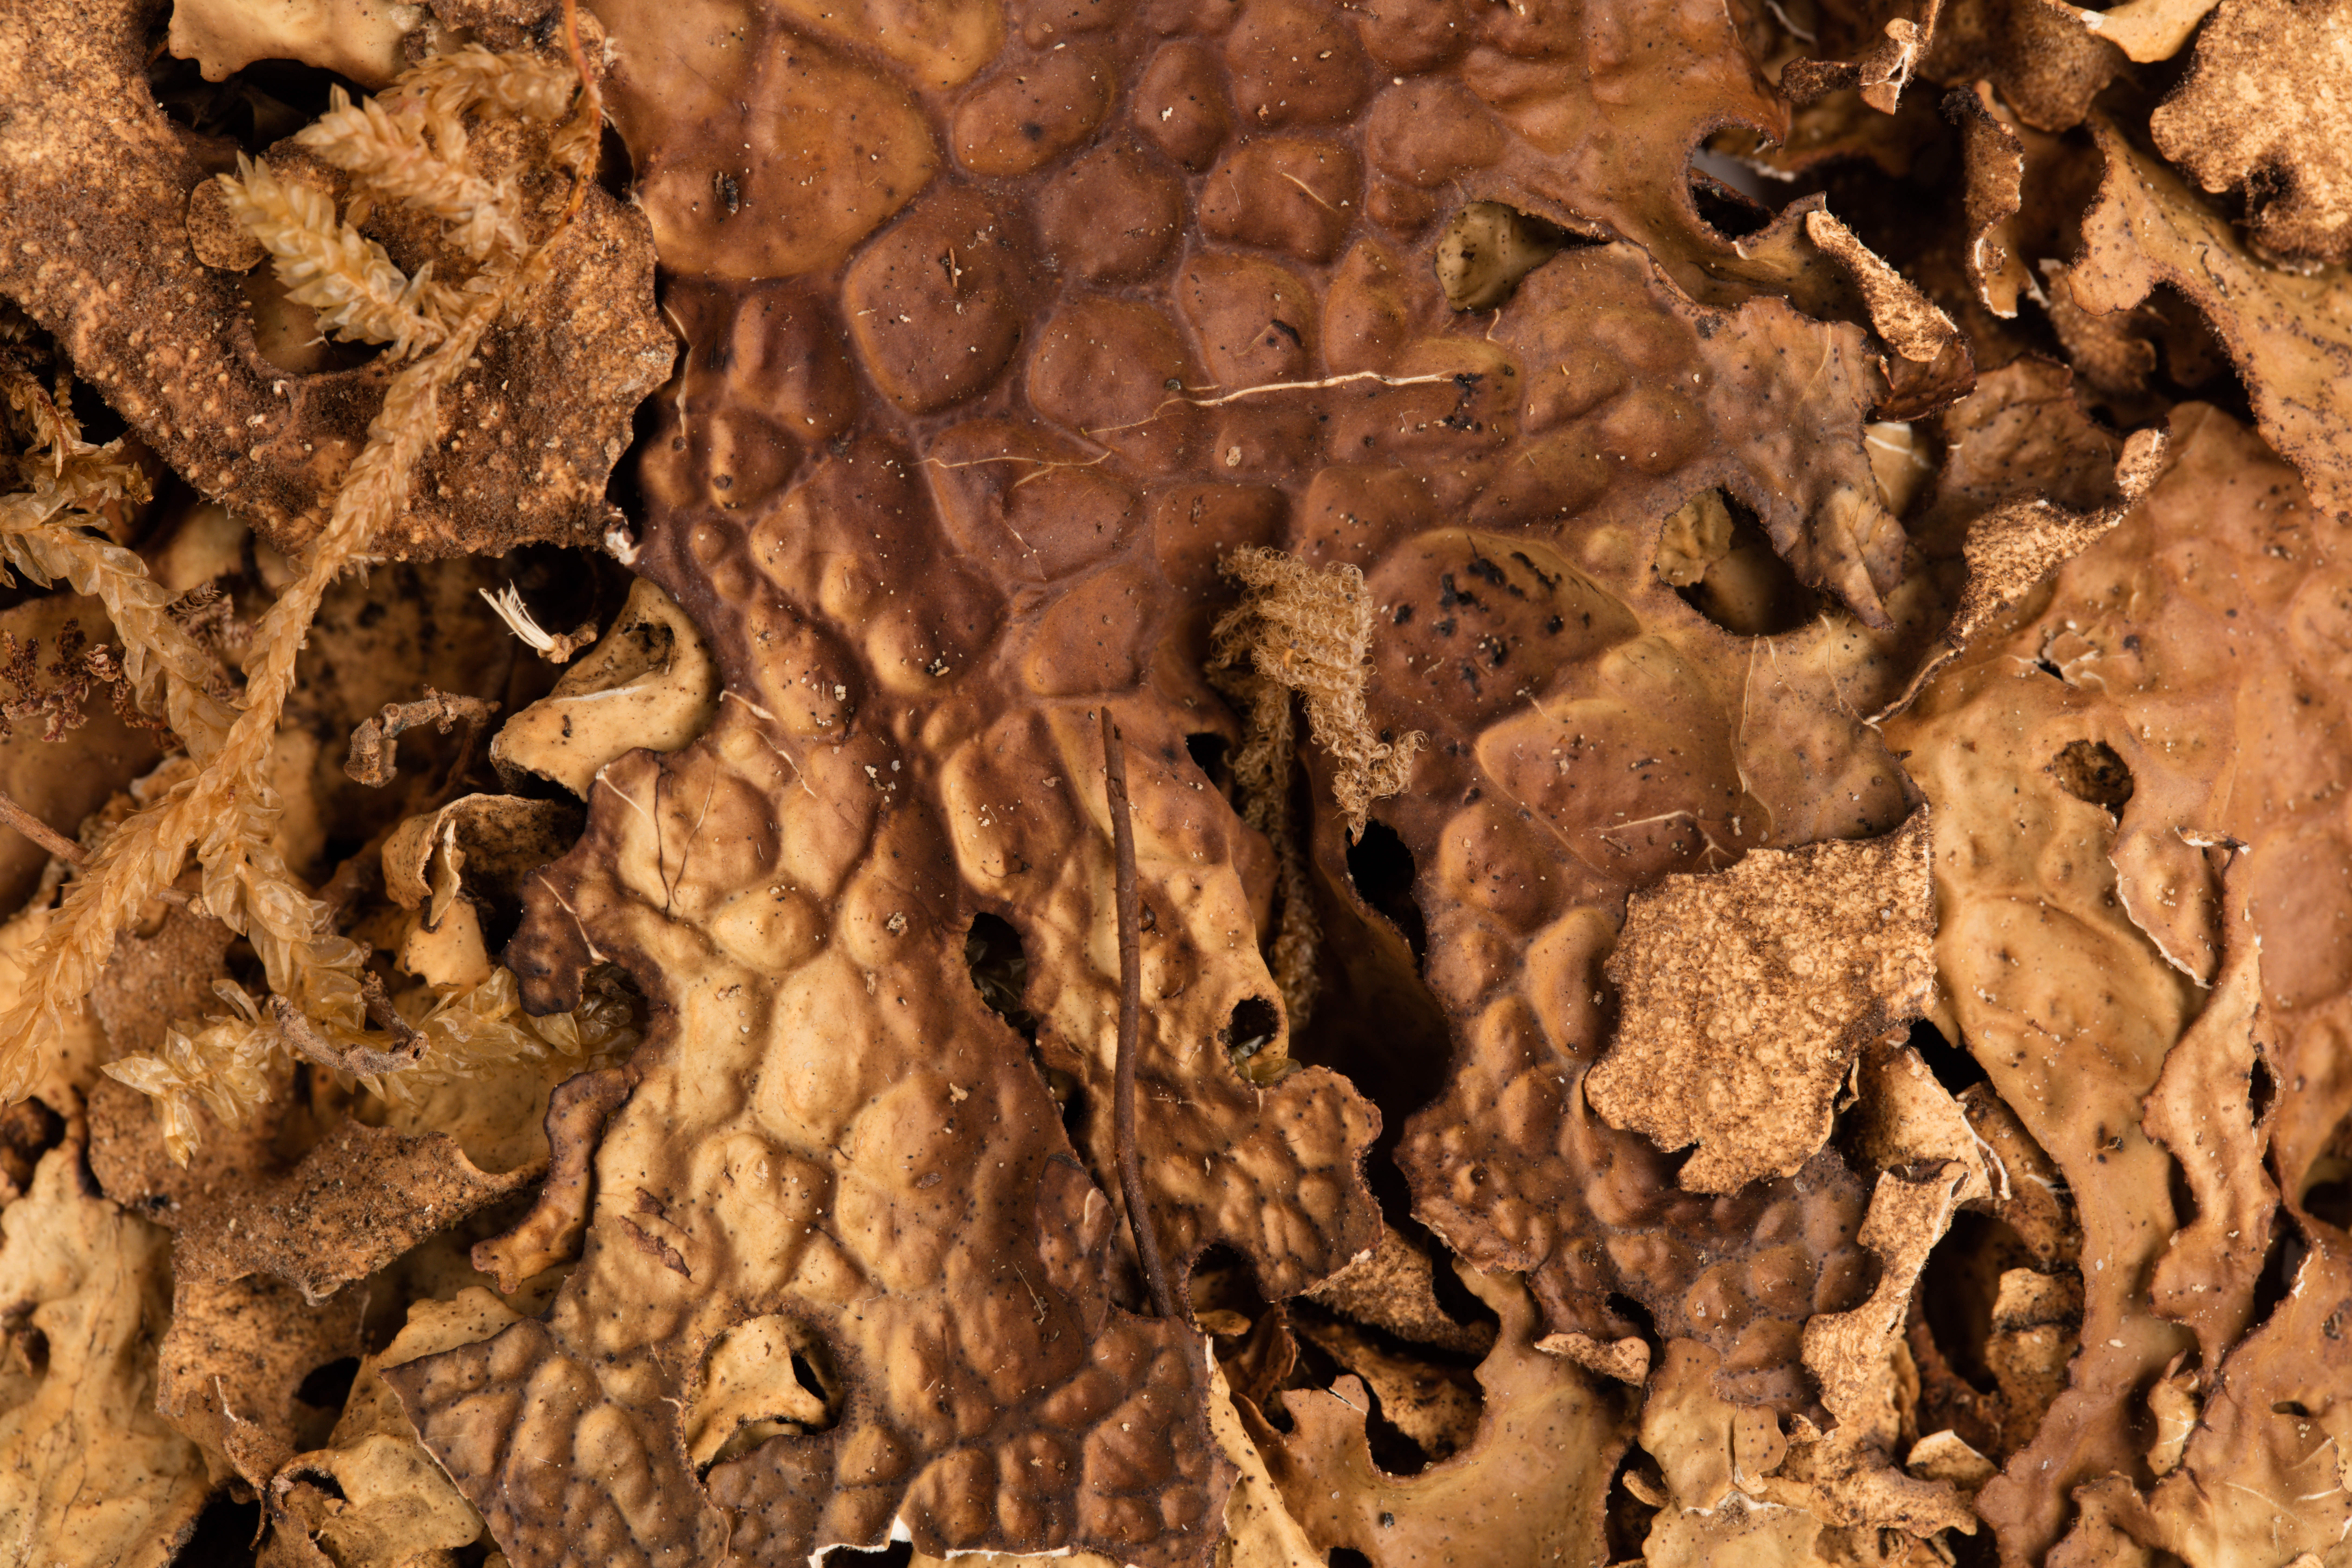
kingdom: Fungi
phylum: Ascomycota
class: Lecanoromycetes
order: Peltigerales
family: Lobariaceae
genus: Pseudocyphellaria
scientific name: Pseudocyphellaria durietzii
